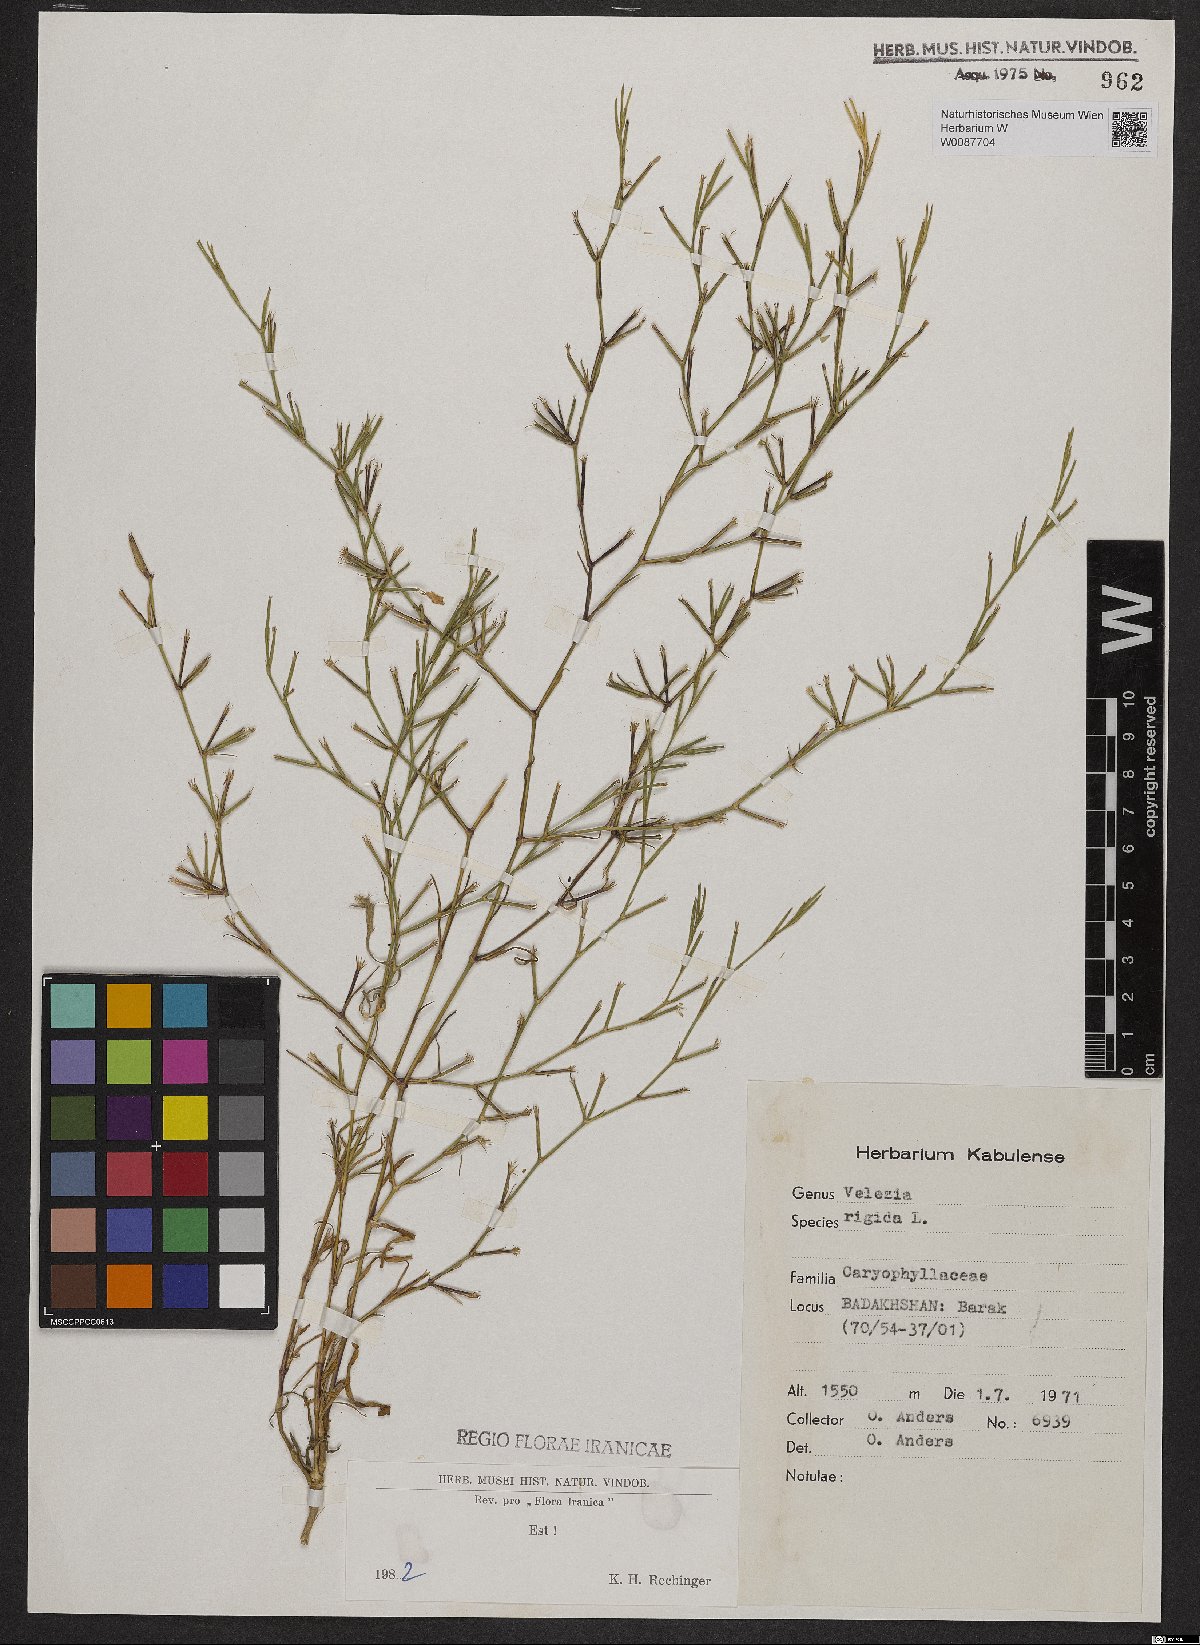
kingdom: Plantae
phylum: Tracheophyta
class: Magnoliopsida
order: Caryophyllales
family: Caryophyllaceae
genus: Dianthus
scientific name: Dianthus nudiflorus
